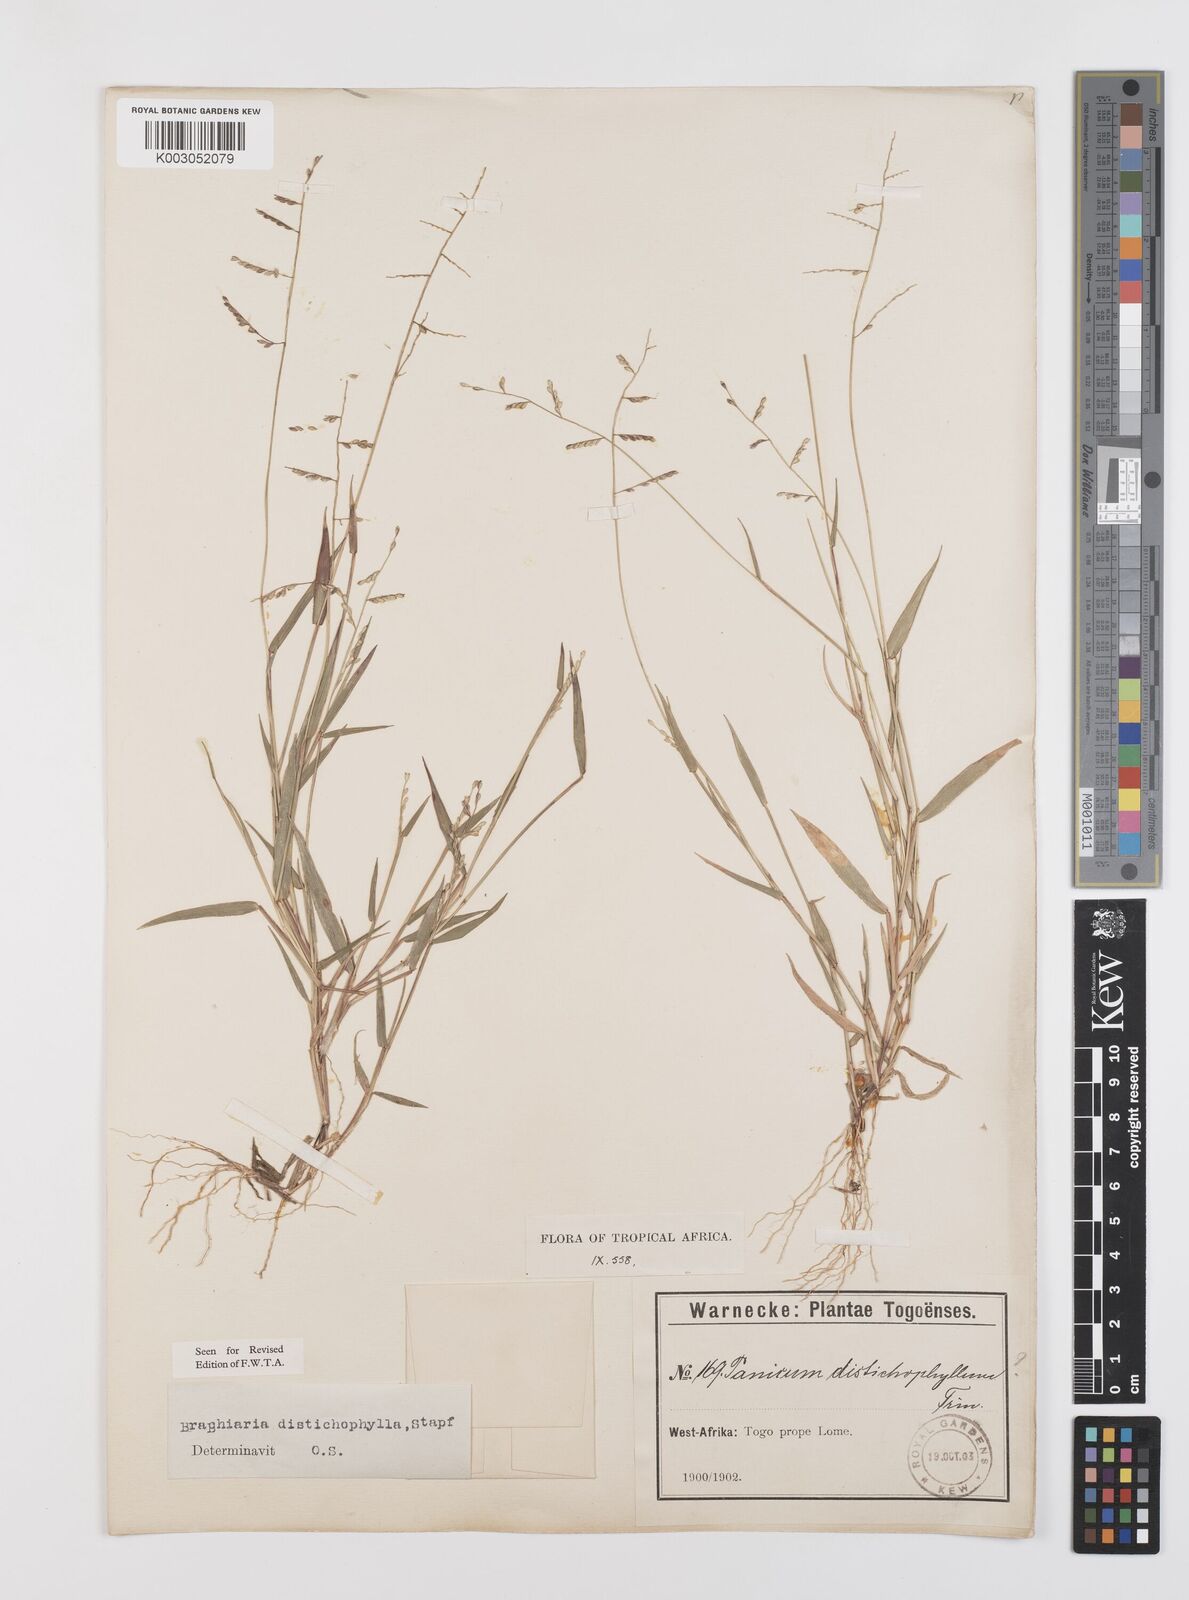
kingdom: Plantae
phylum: Tracheophyta
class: Liliopsida
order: Poales
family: Poaceae
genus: Urochloa
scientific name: Urochloa villosa
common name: Hairy signalgrass
